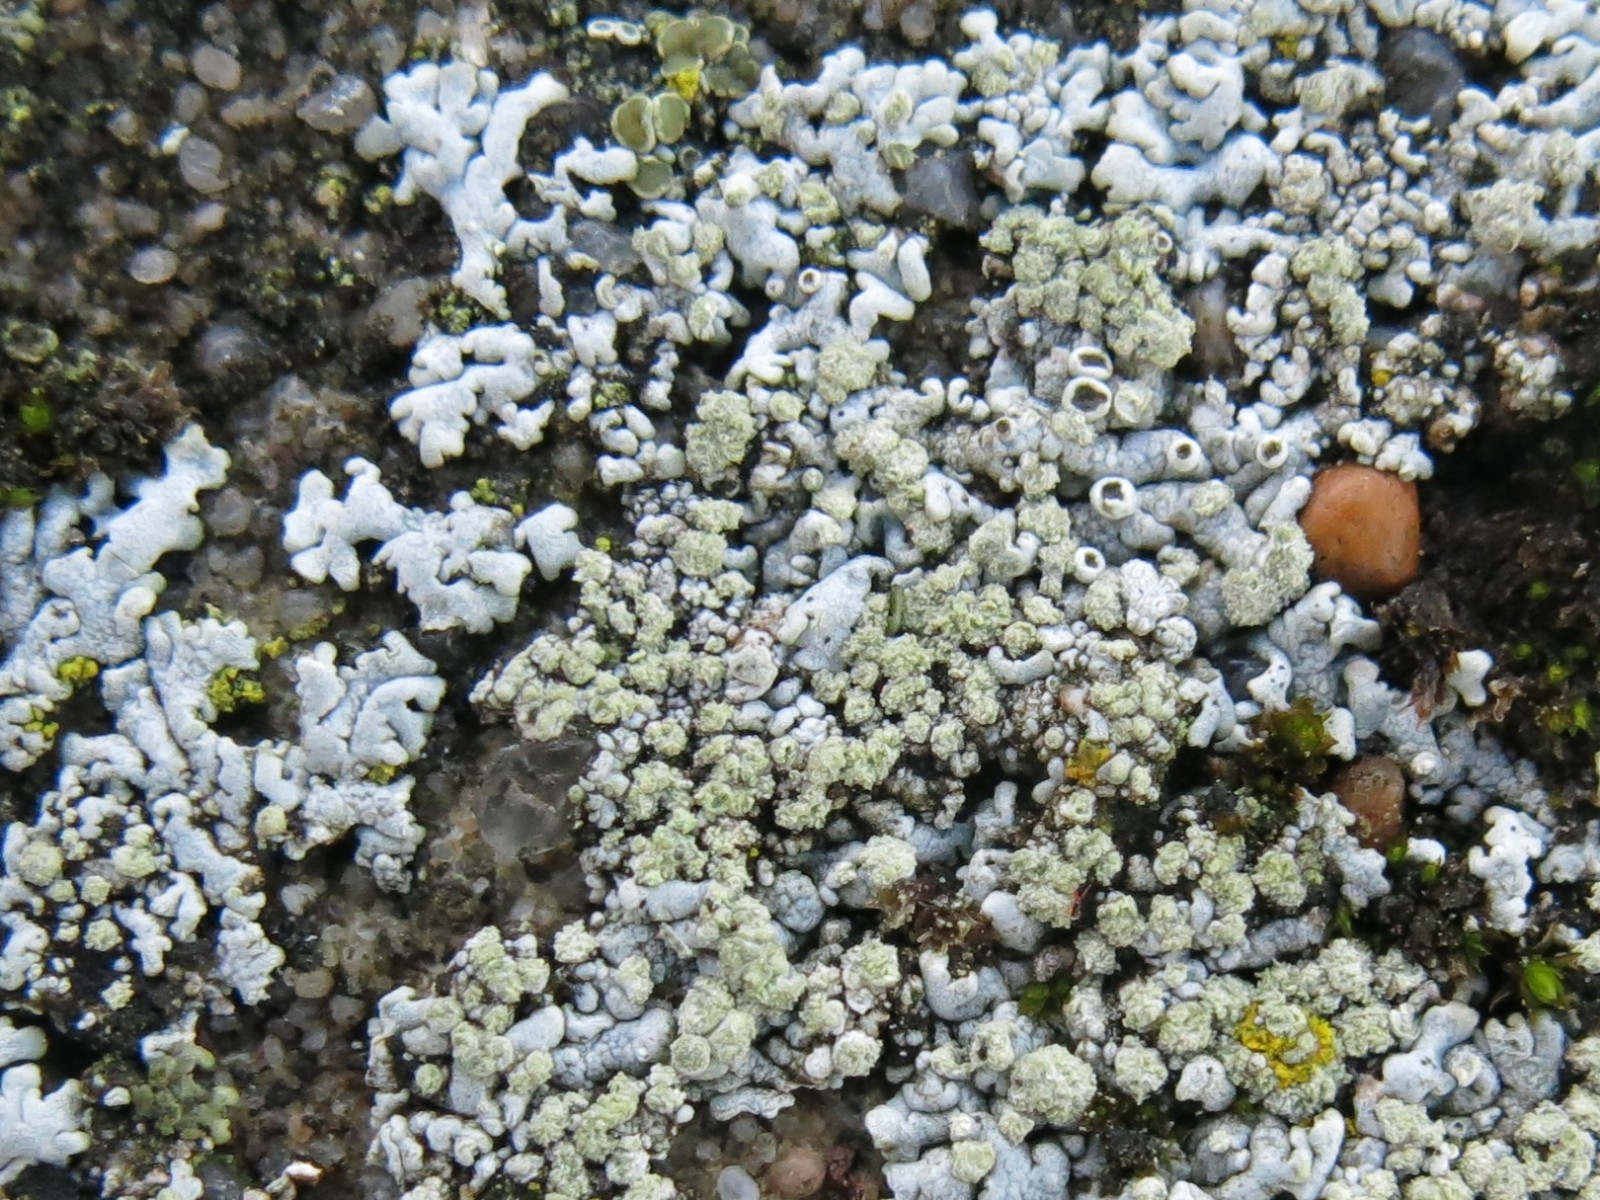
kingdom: Fungi
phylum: Ascomycota
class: Lecanoromycetes
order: Caliciales
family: Physciaceae
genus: Physcia
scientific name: Physcia caesia
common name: blågrå rosetlav
